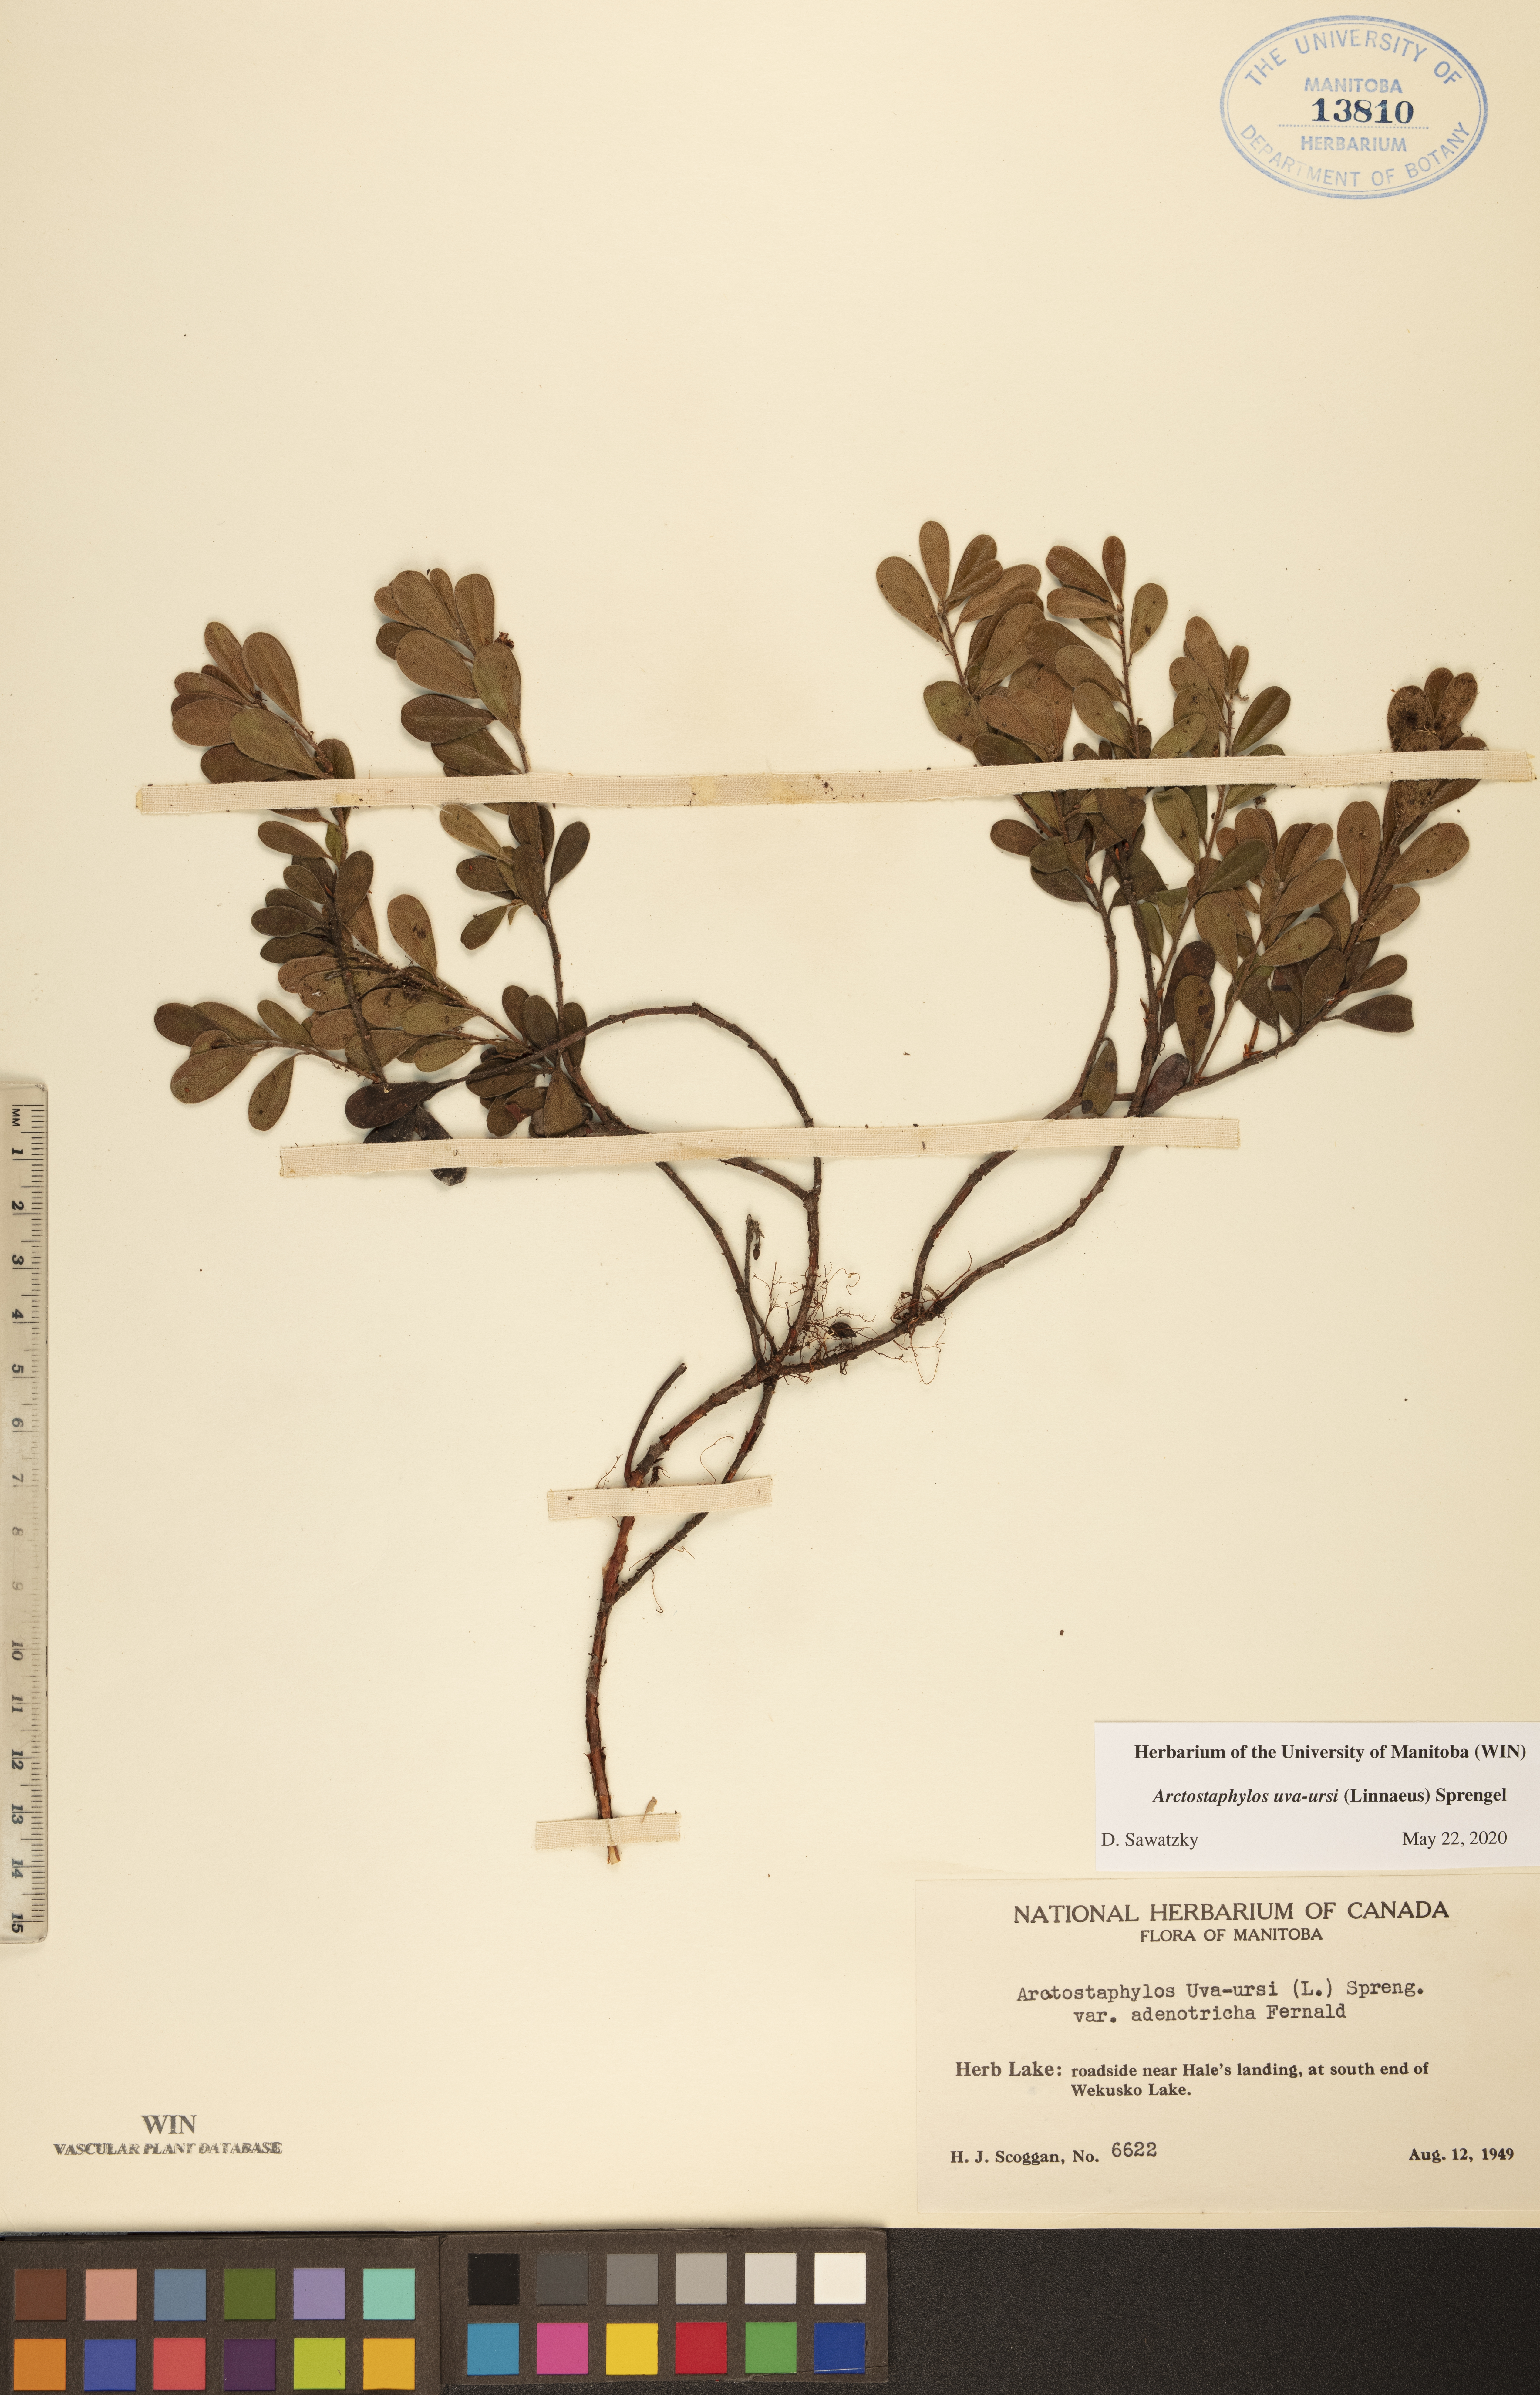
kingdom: Plantae
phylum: Tracheophyta
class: Magnoliopsida
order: Ericales
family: Ericaceae
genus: Arctostaphylos
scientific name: Arctostaphylos uva-ursi
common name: Bearberry
